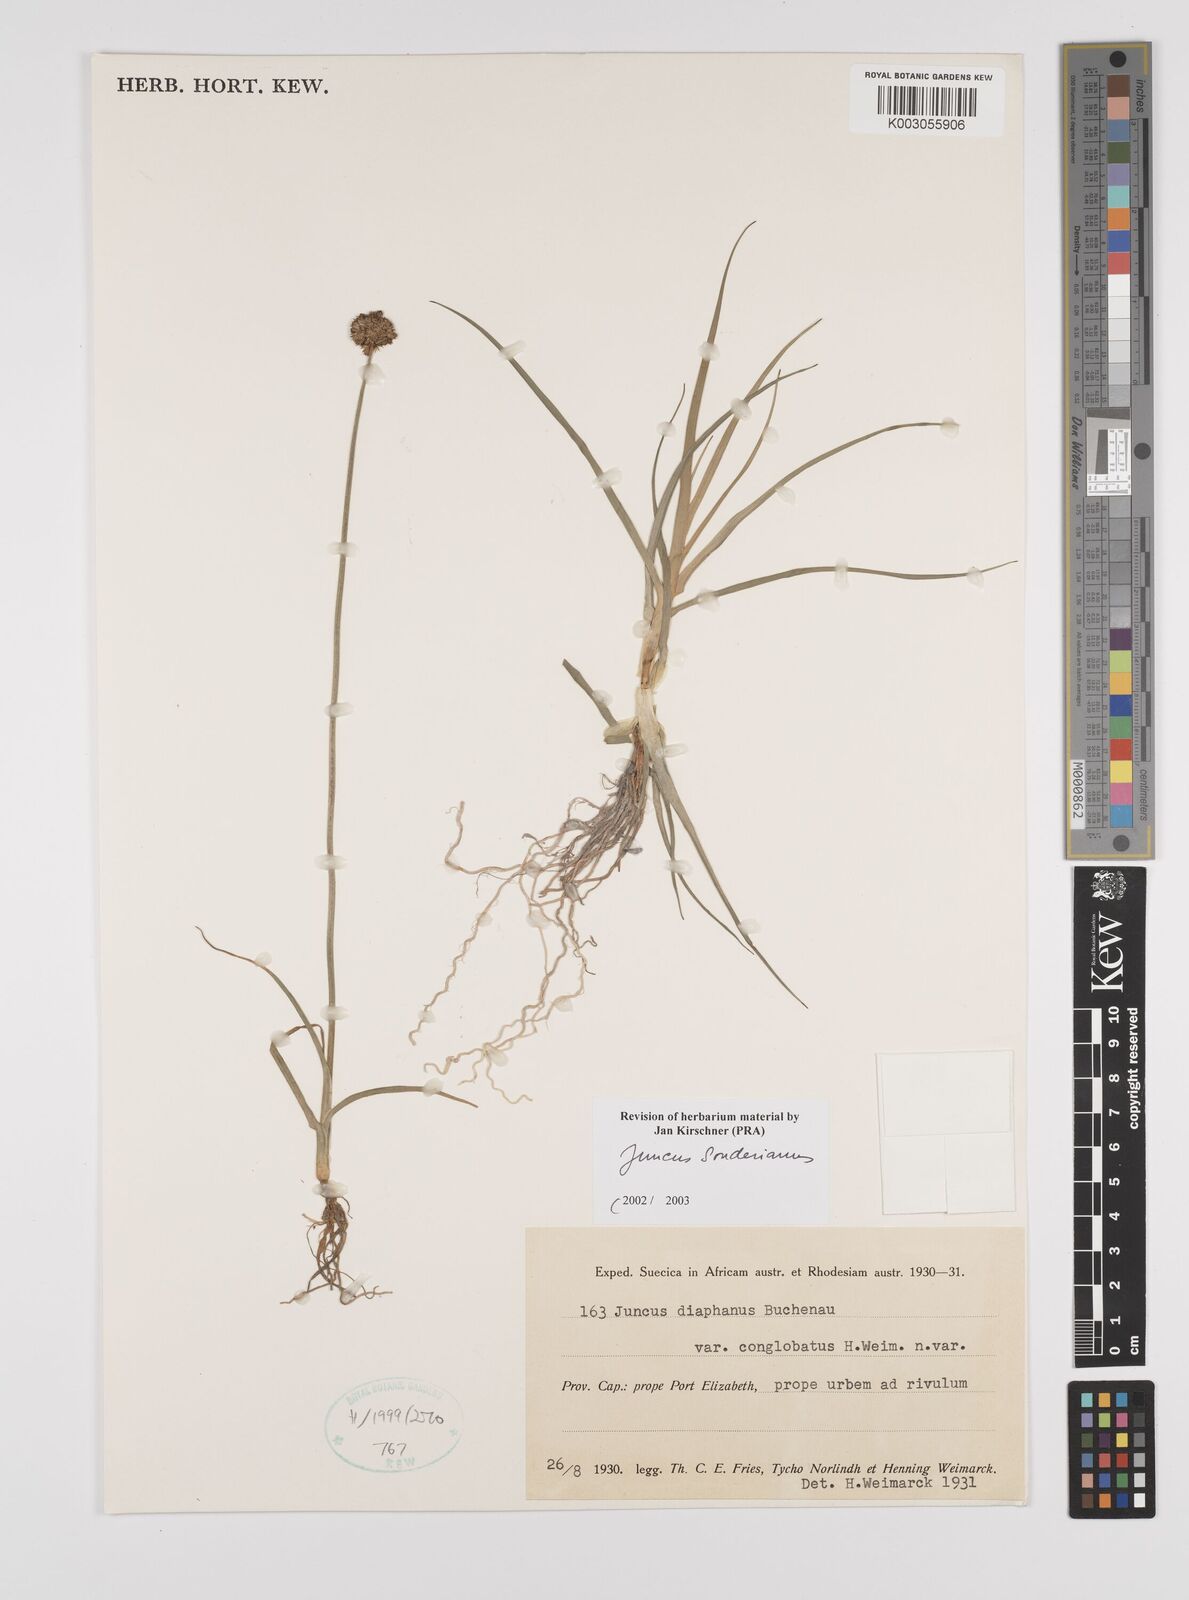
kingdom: Plantae
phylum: Tracheophyta
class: Liliopsida
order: Poales
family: Juncaceae
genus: Juncus
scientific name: Juncus sonderianus
